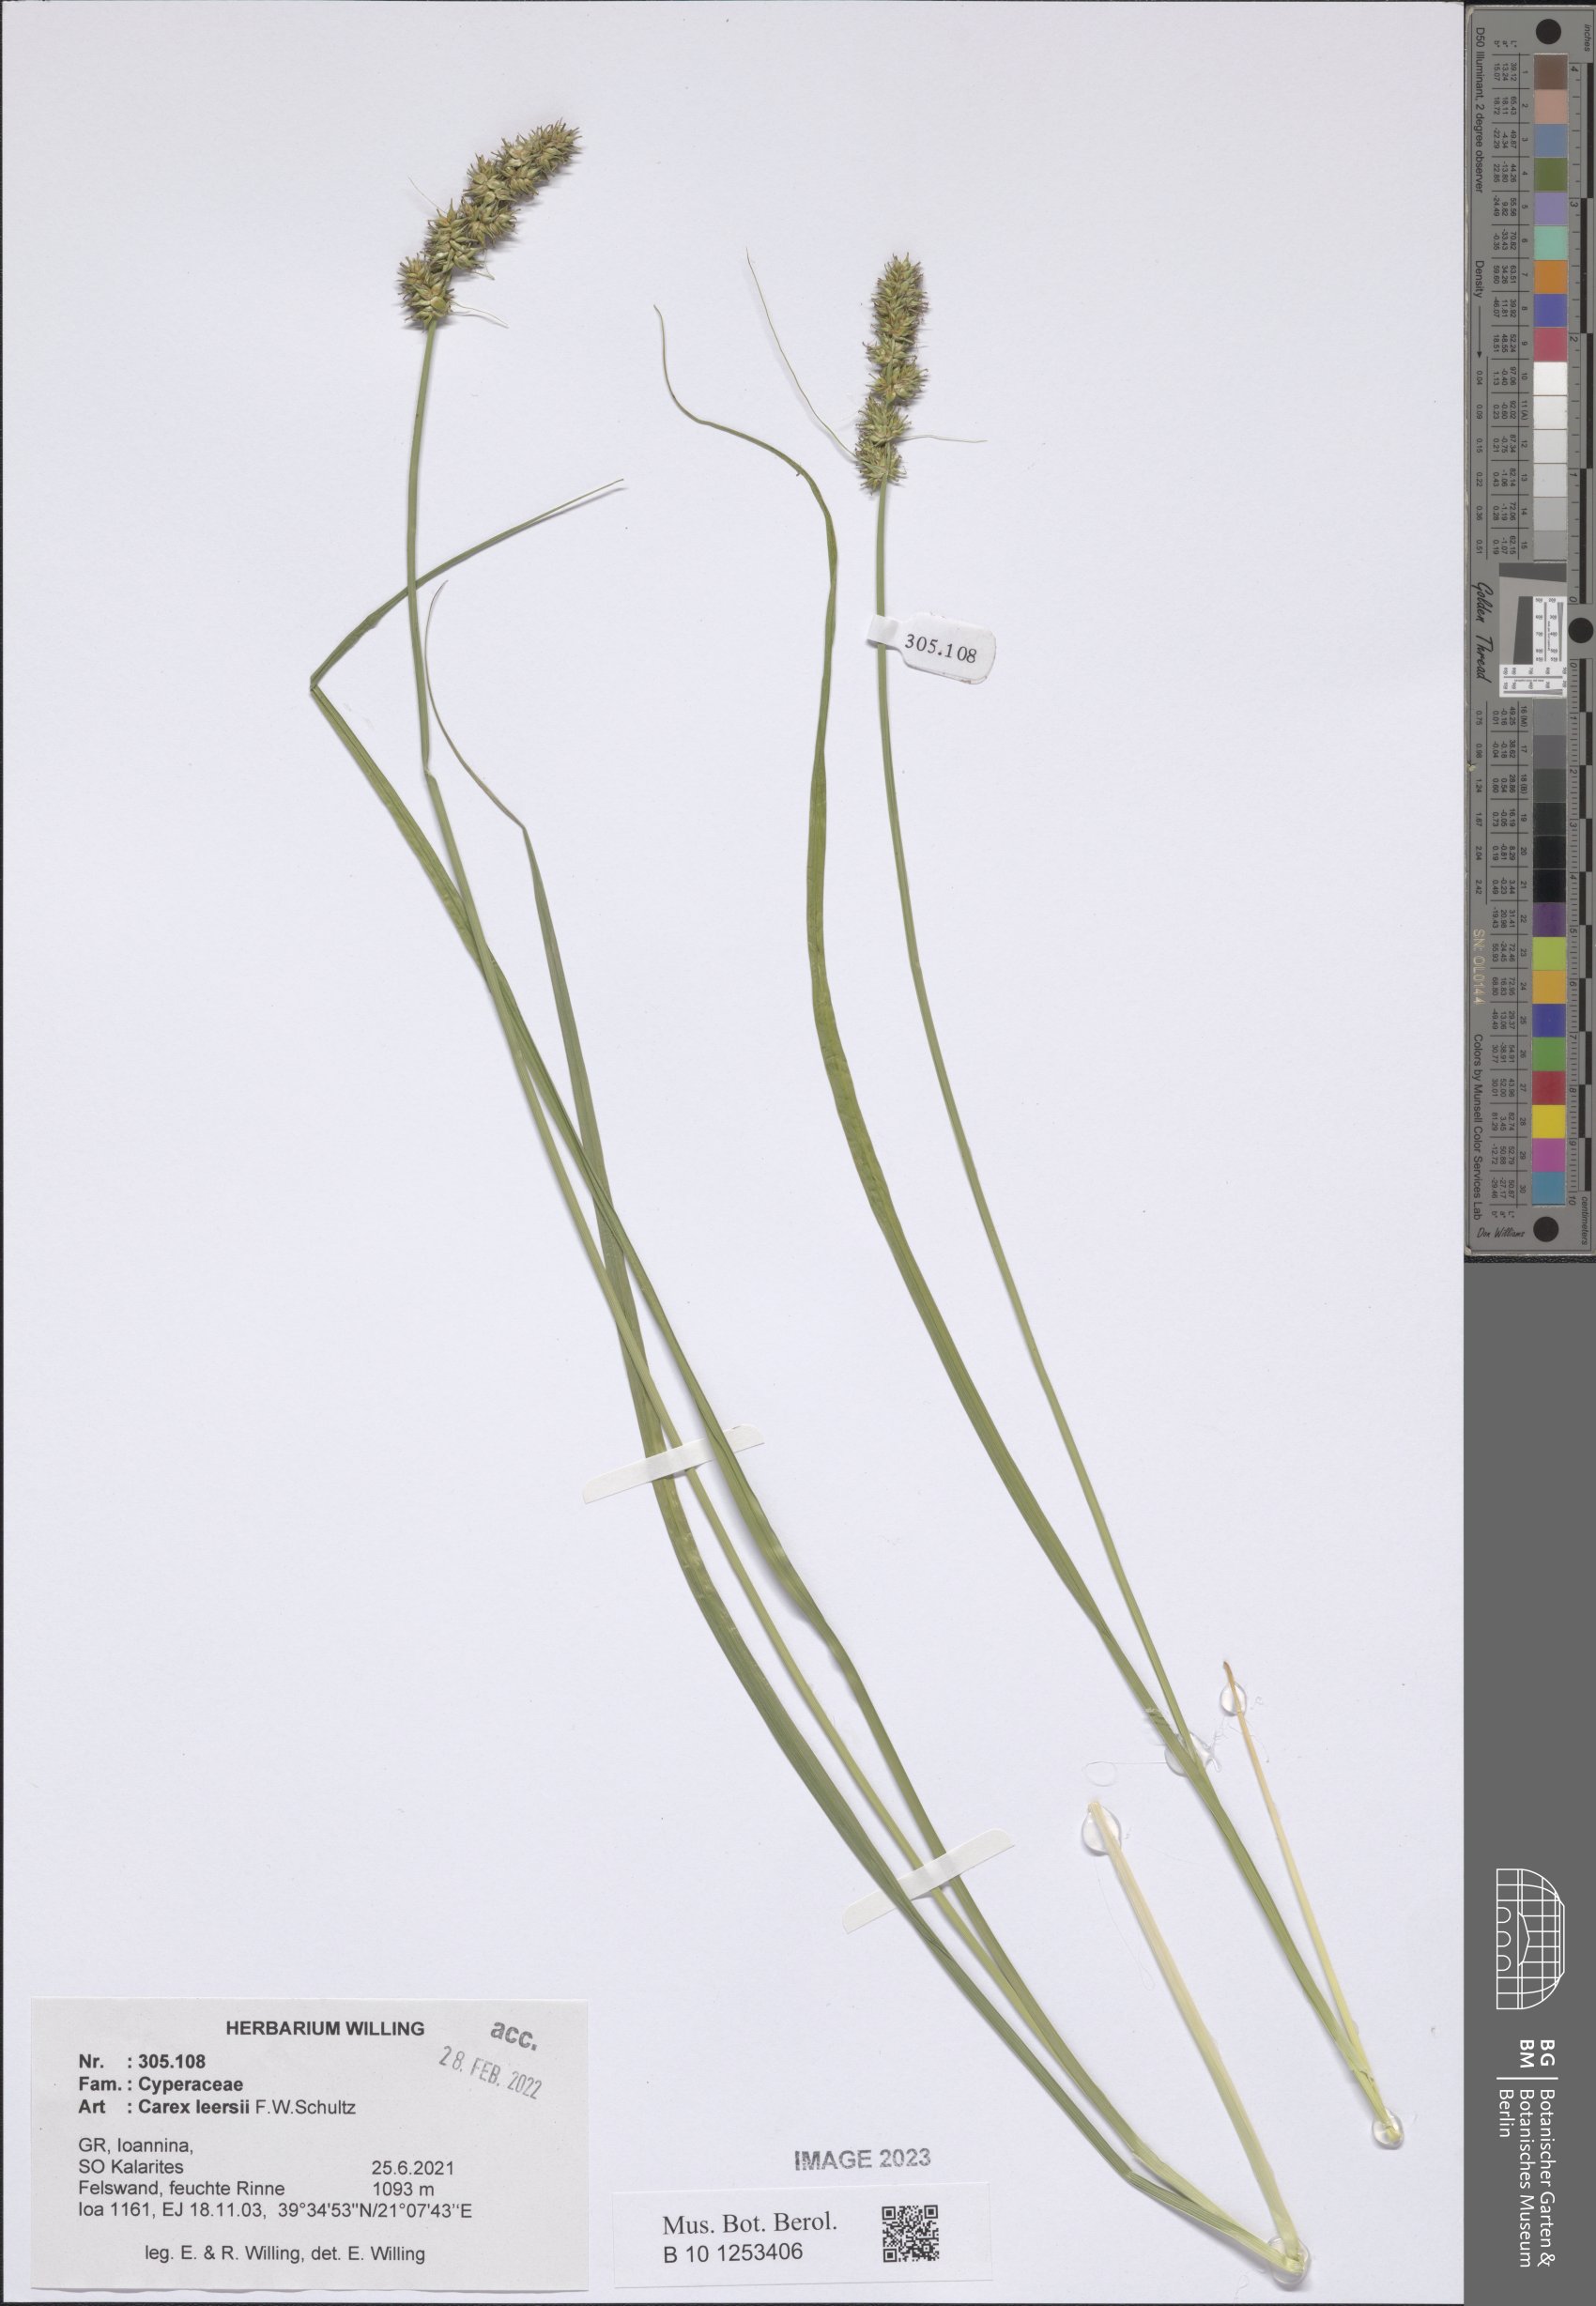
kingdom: Plantae
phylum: Tracheophyta
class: Liliopsida
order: Poales
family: Cyperaceae
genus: Carex
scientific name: Carex leersii
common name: Leers' sedge
